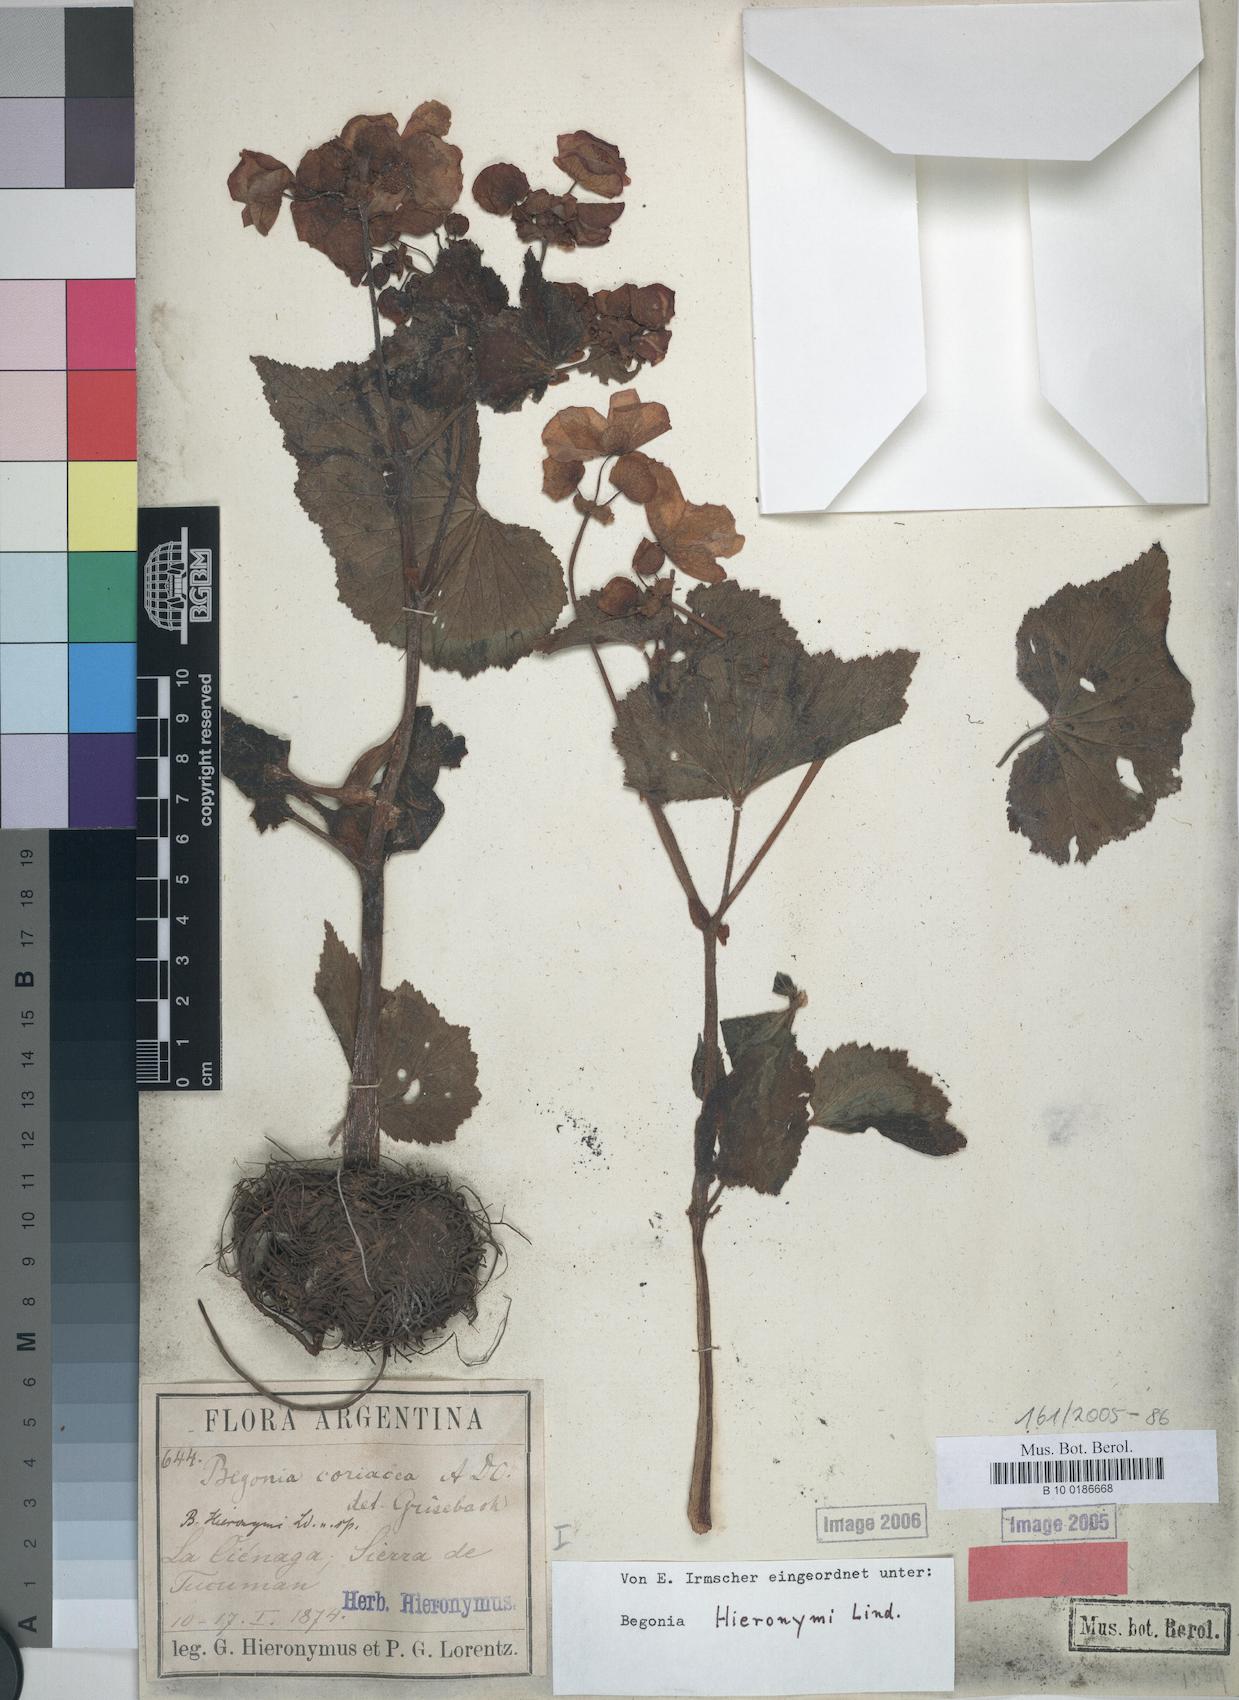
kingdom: Plantae
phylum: Tracheophyta
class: Magnoliopsida
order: Cucurbitales
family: Begoniaceae
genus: Begonia
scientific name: Begonia micranthera
